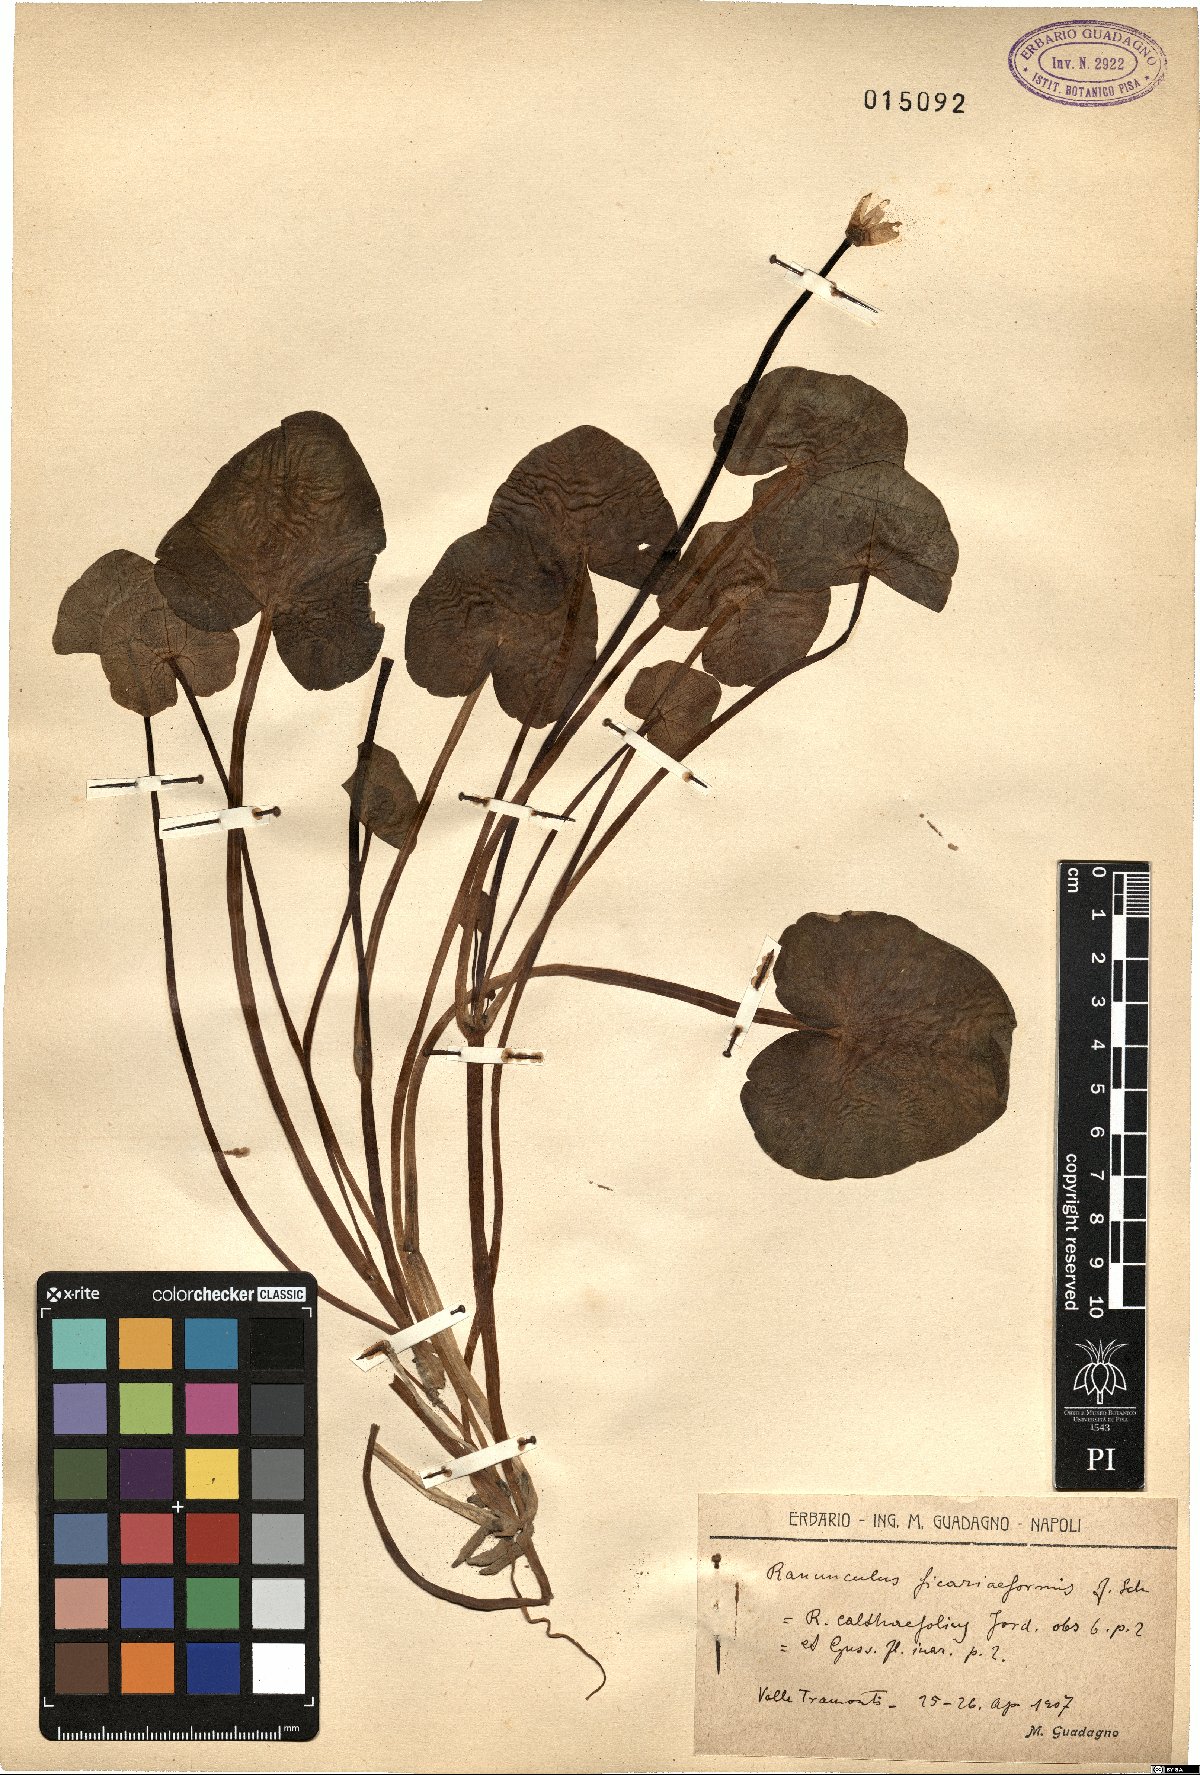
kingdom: Plantae
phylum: Tracheophyta
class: Magnoliopsida
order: Ranunculales
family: Ranunculaceae
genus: Ranunculus
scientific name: Ranunculus ficariiformis
